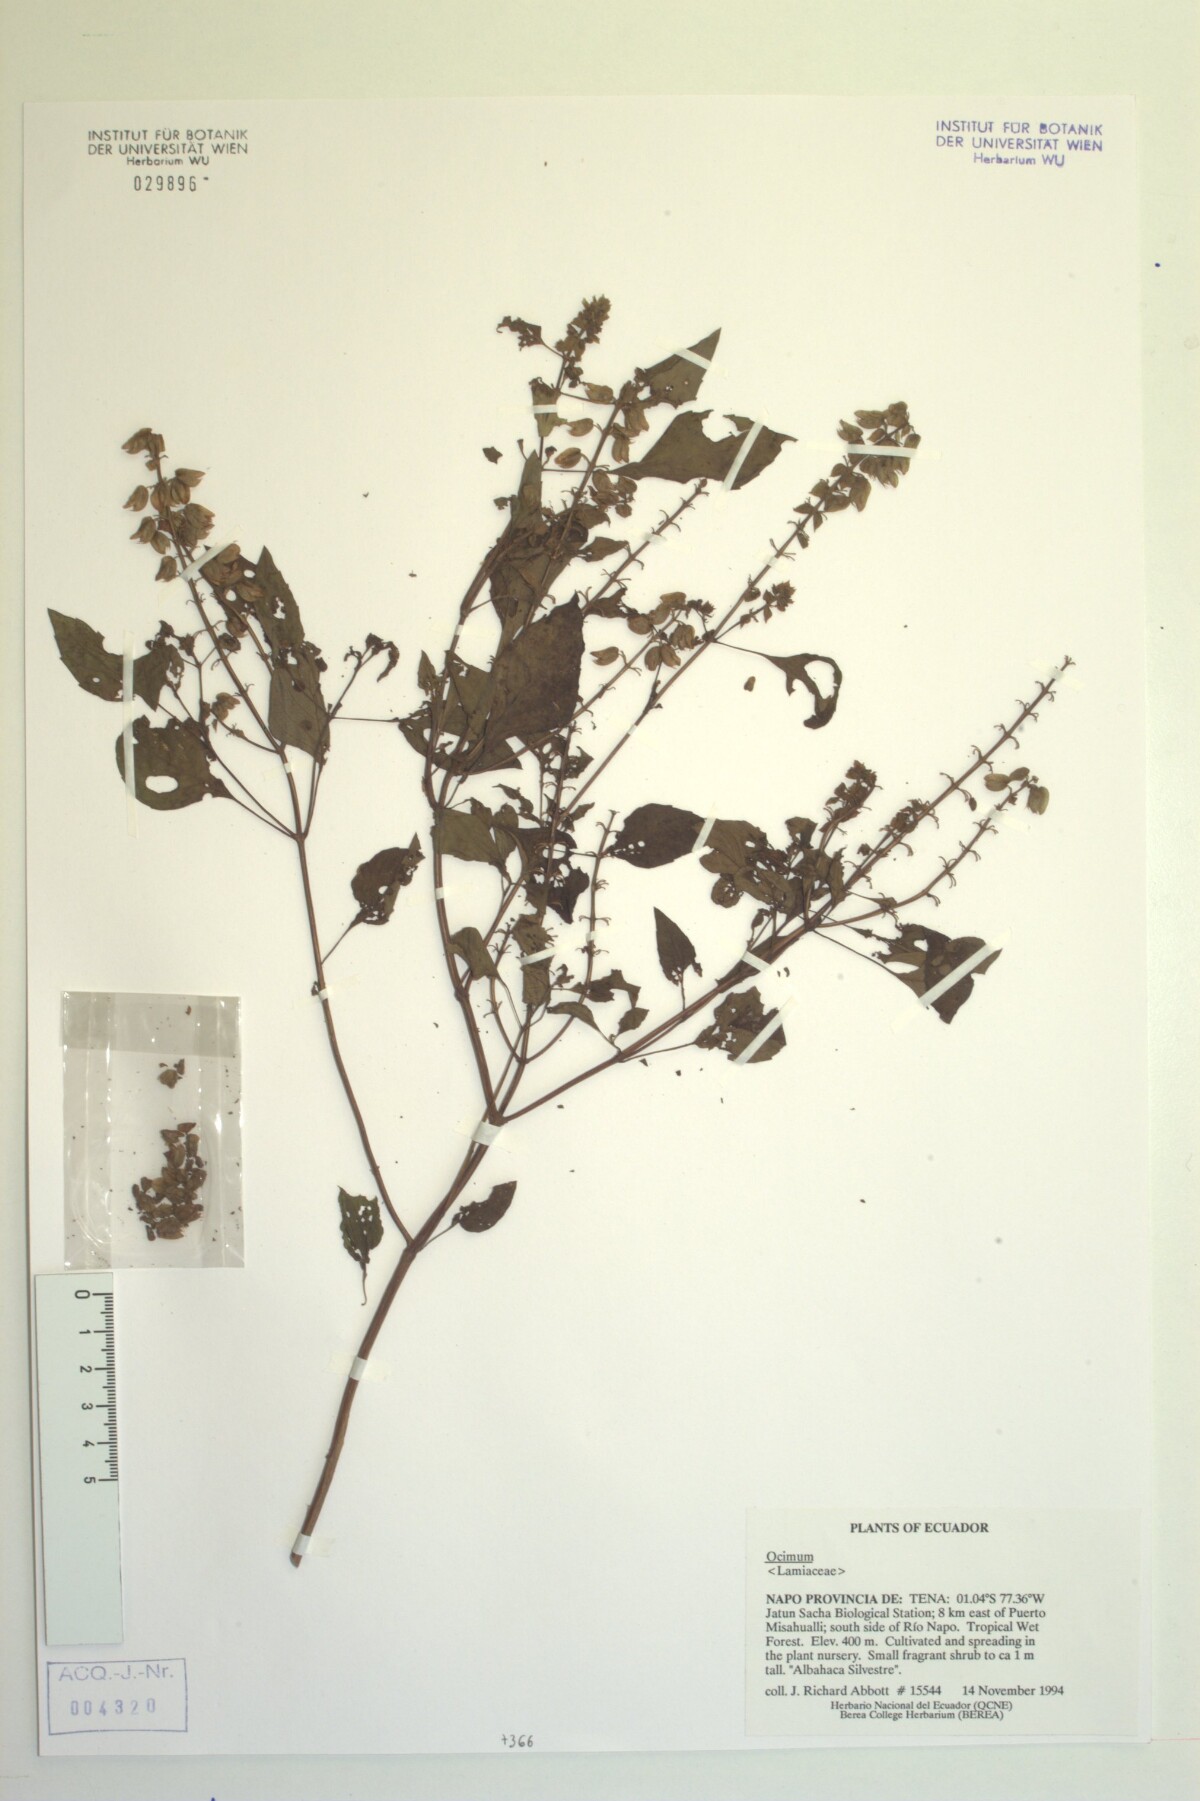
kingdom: Plantae
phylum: Tracheophyta
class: Magnoliopsida
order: Lamiales
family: Lamiaceae
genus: Ocimum
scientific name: Ocimum campechianum
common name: Mosquito basil
